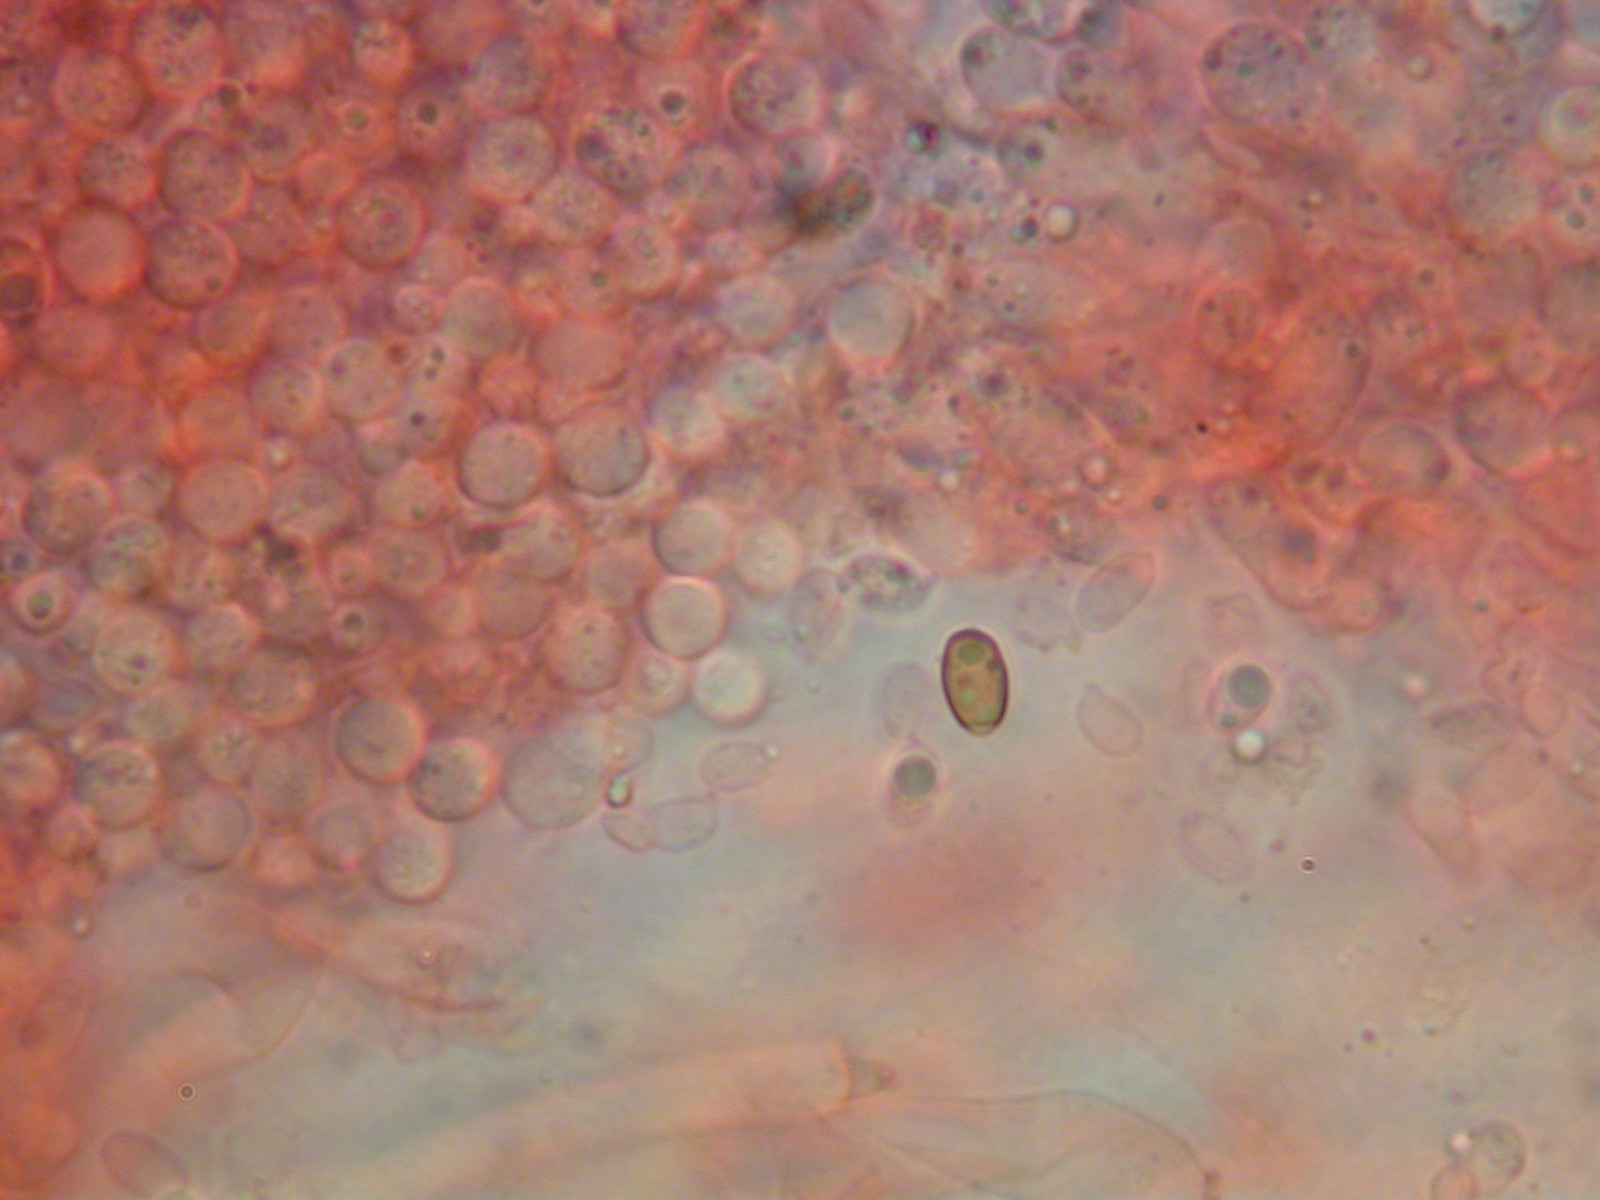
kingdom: Fungi
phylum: Basidiomycota
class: Agaricomycetes
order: Agaricales
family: Tricholomataceae
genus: Clitocybe
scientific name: Clitocybe
